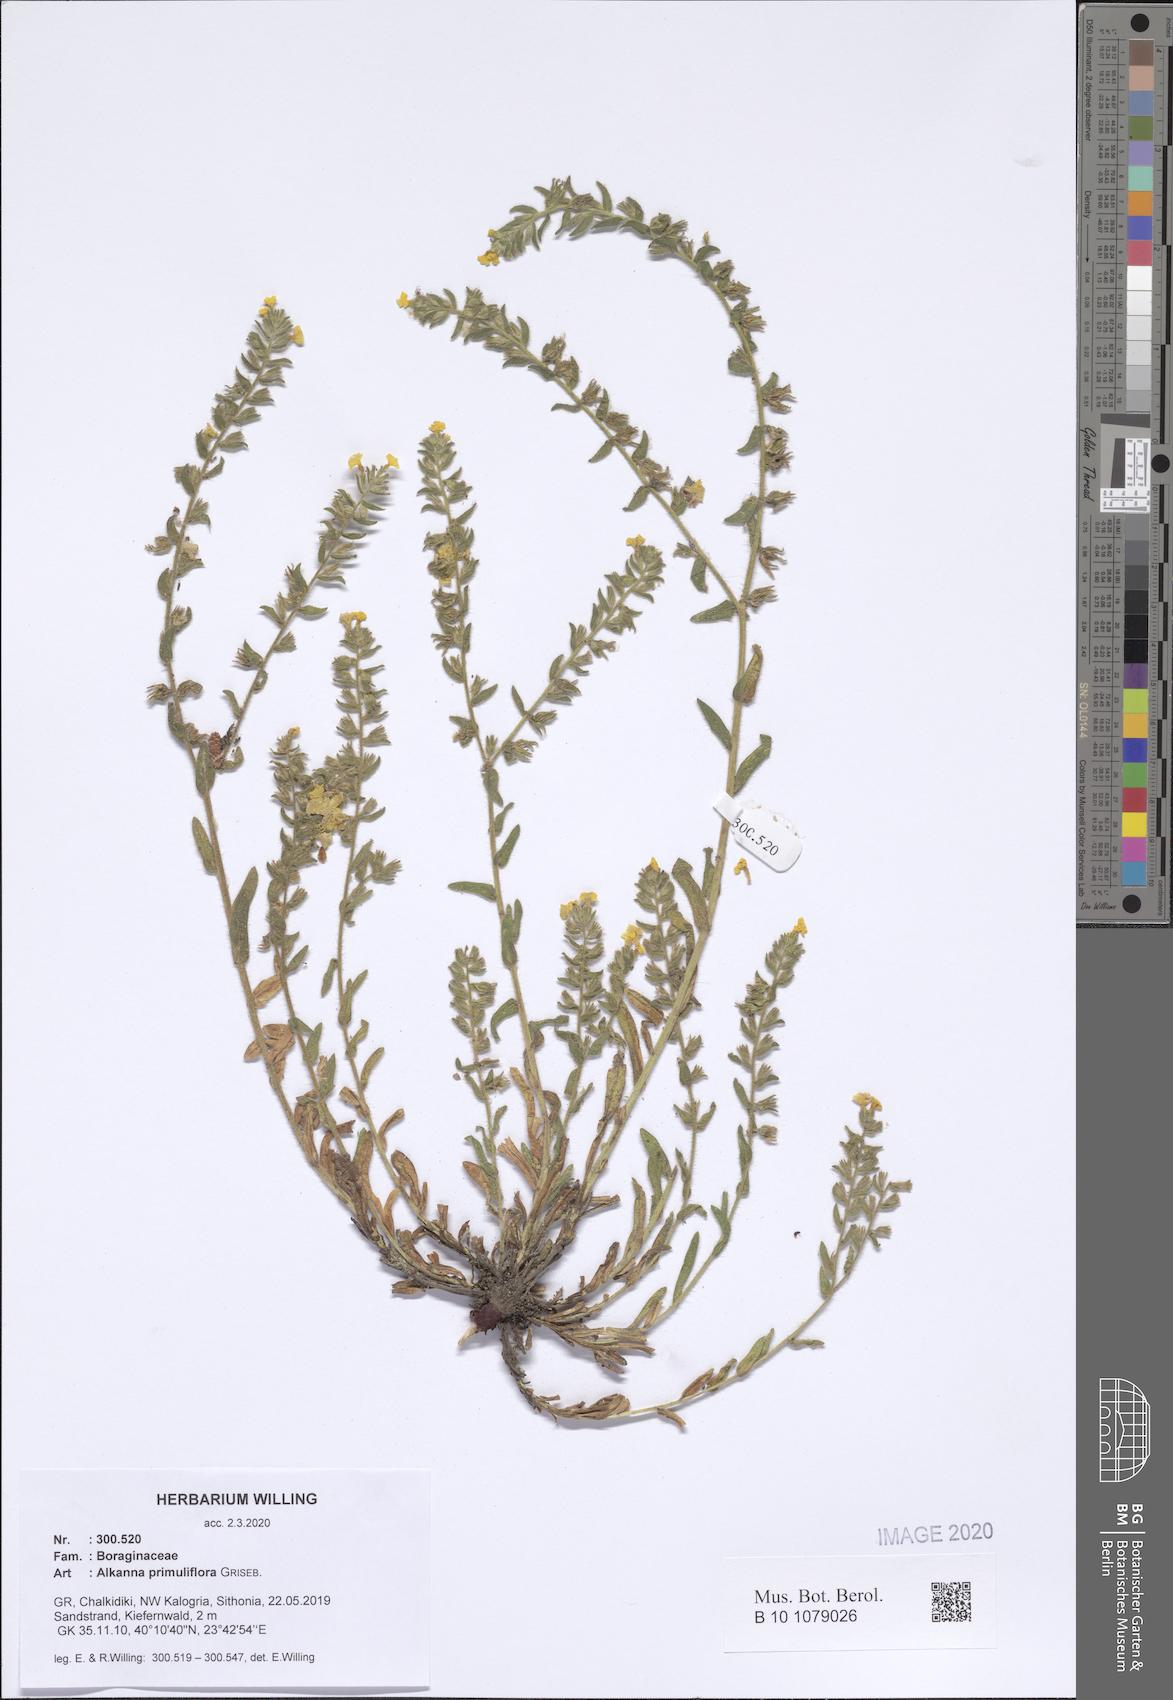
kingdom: Plantae
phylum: Tracheophyta
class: Magnoliopsida
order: Boraginales
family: Boraginaceae
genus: Alkanna
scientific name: Alkanna primuliflora
